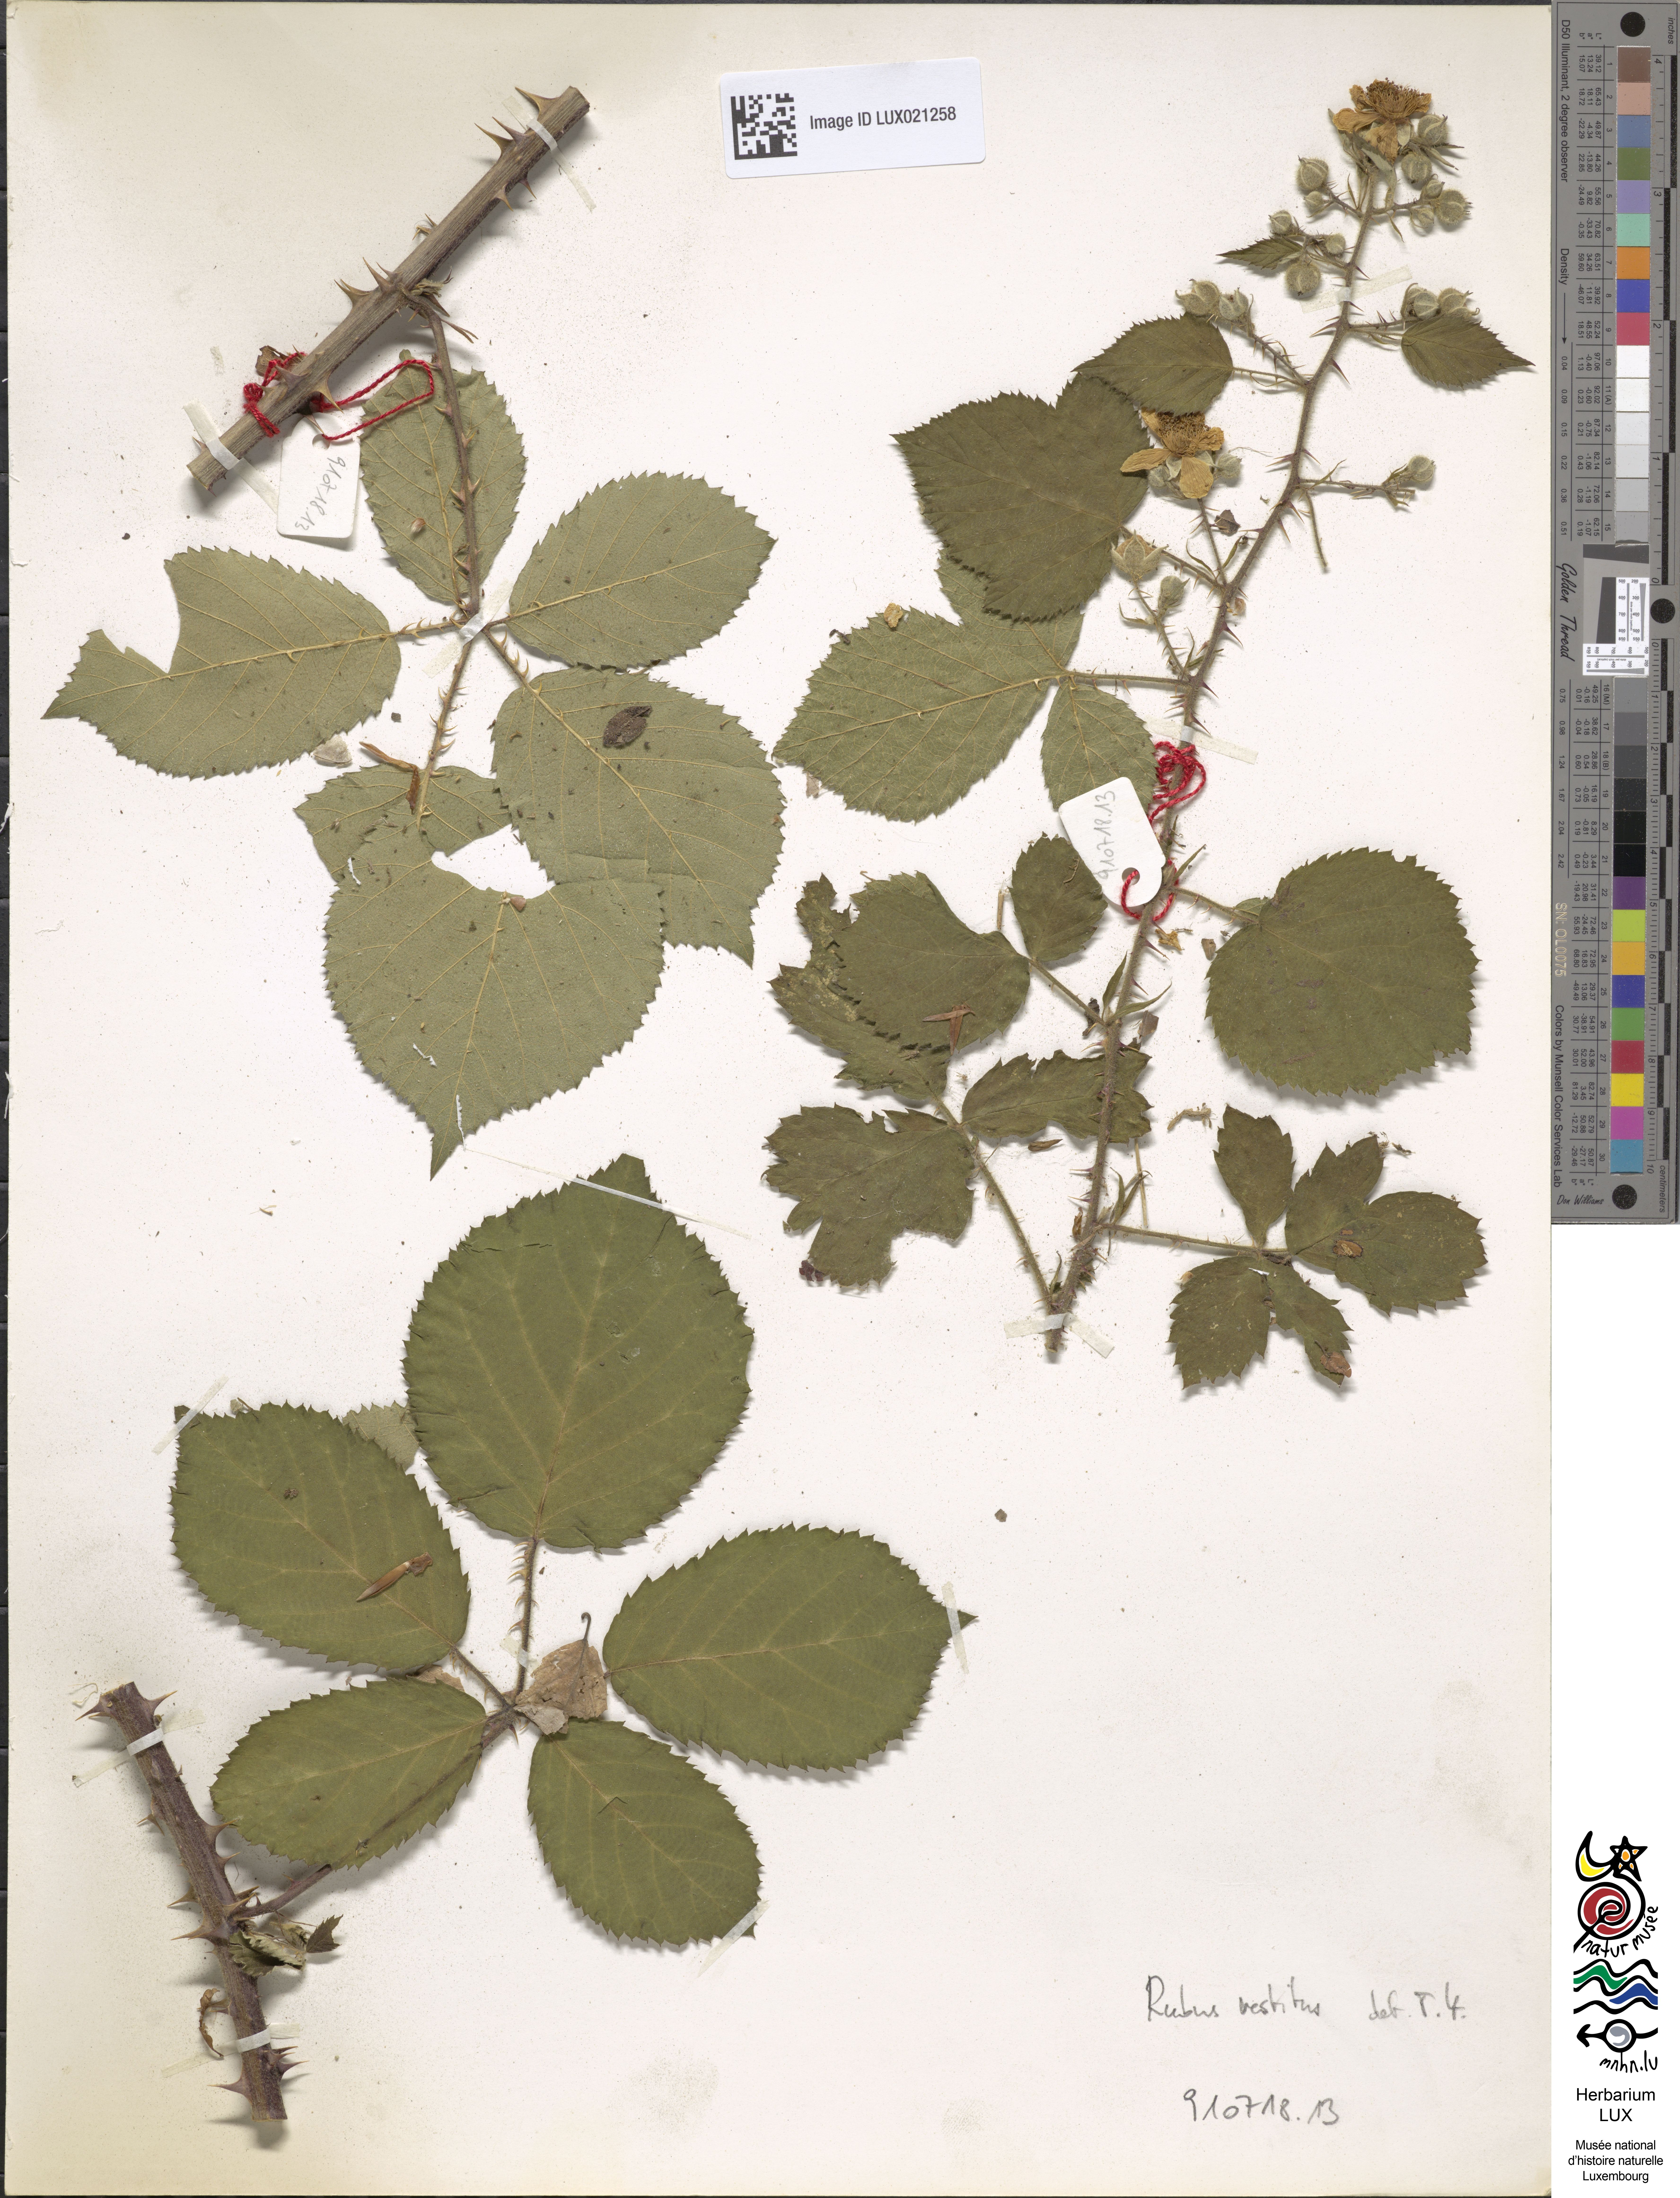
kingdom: Plantae
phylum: Tracheophyta
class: Magnoliopsida
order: Rosales
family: Rosaceae
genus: Rubus
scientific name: Rubus vestitus
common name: European blackberry
